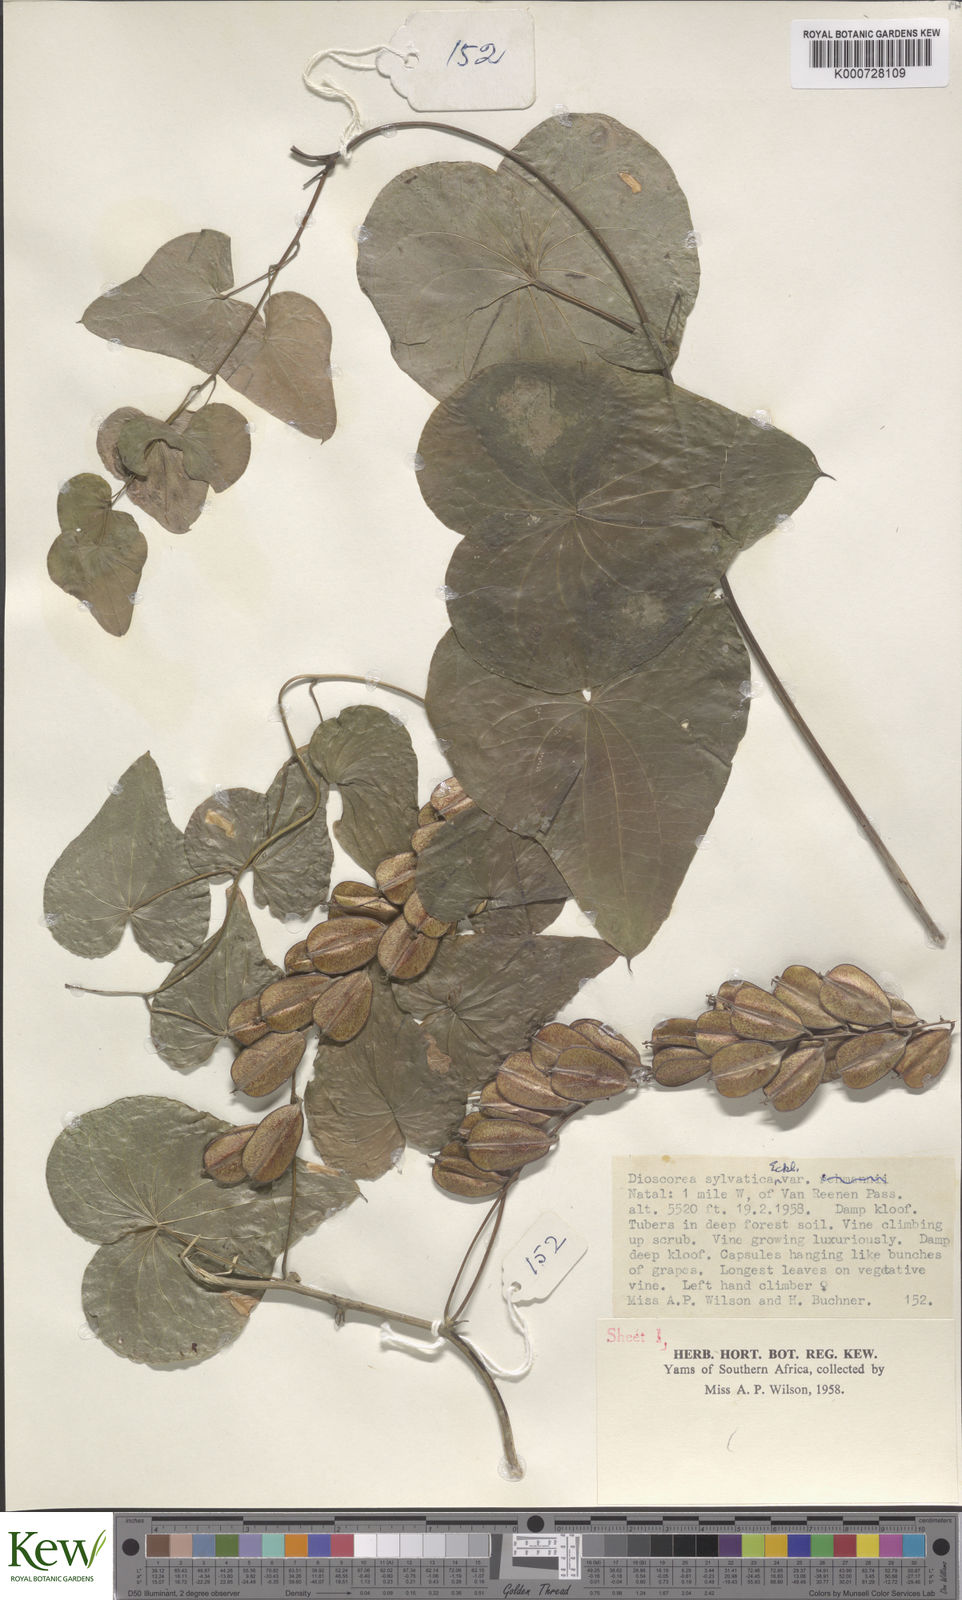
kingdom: Plantae
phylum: Tracheophyta
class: Liliopsida
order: Dioscoreales
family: Dioscoreaceae
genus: Dioscorea
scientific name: Dioscorea sylvatica
